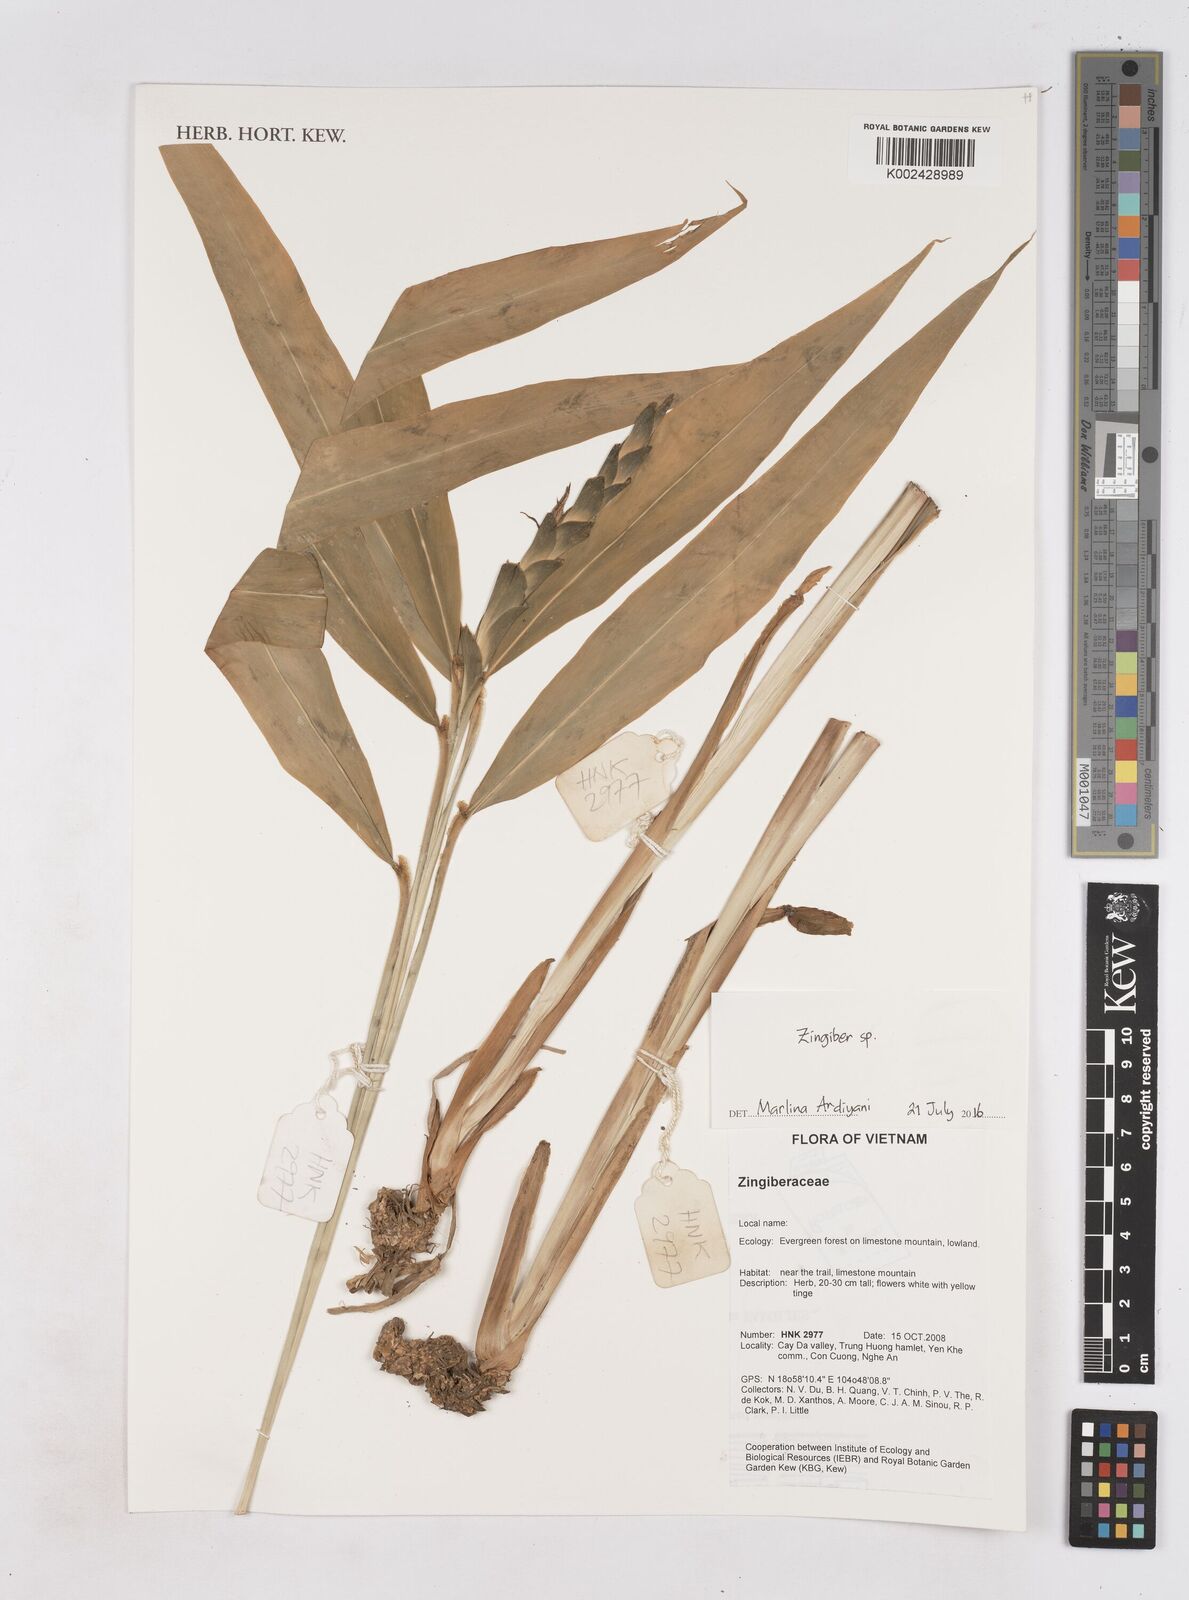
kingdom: Plantae
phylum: Tracheophyta
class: Liliopsida
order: Zingiberales
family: Zingiberaceae
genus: Zingiber
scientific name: Zingiber
